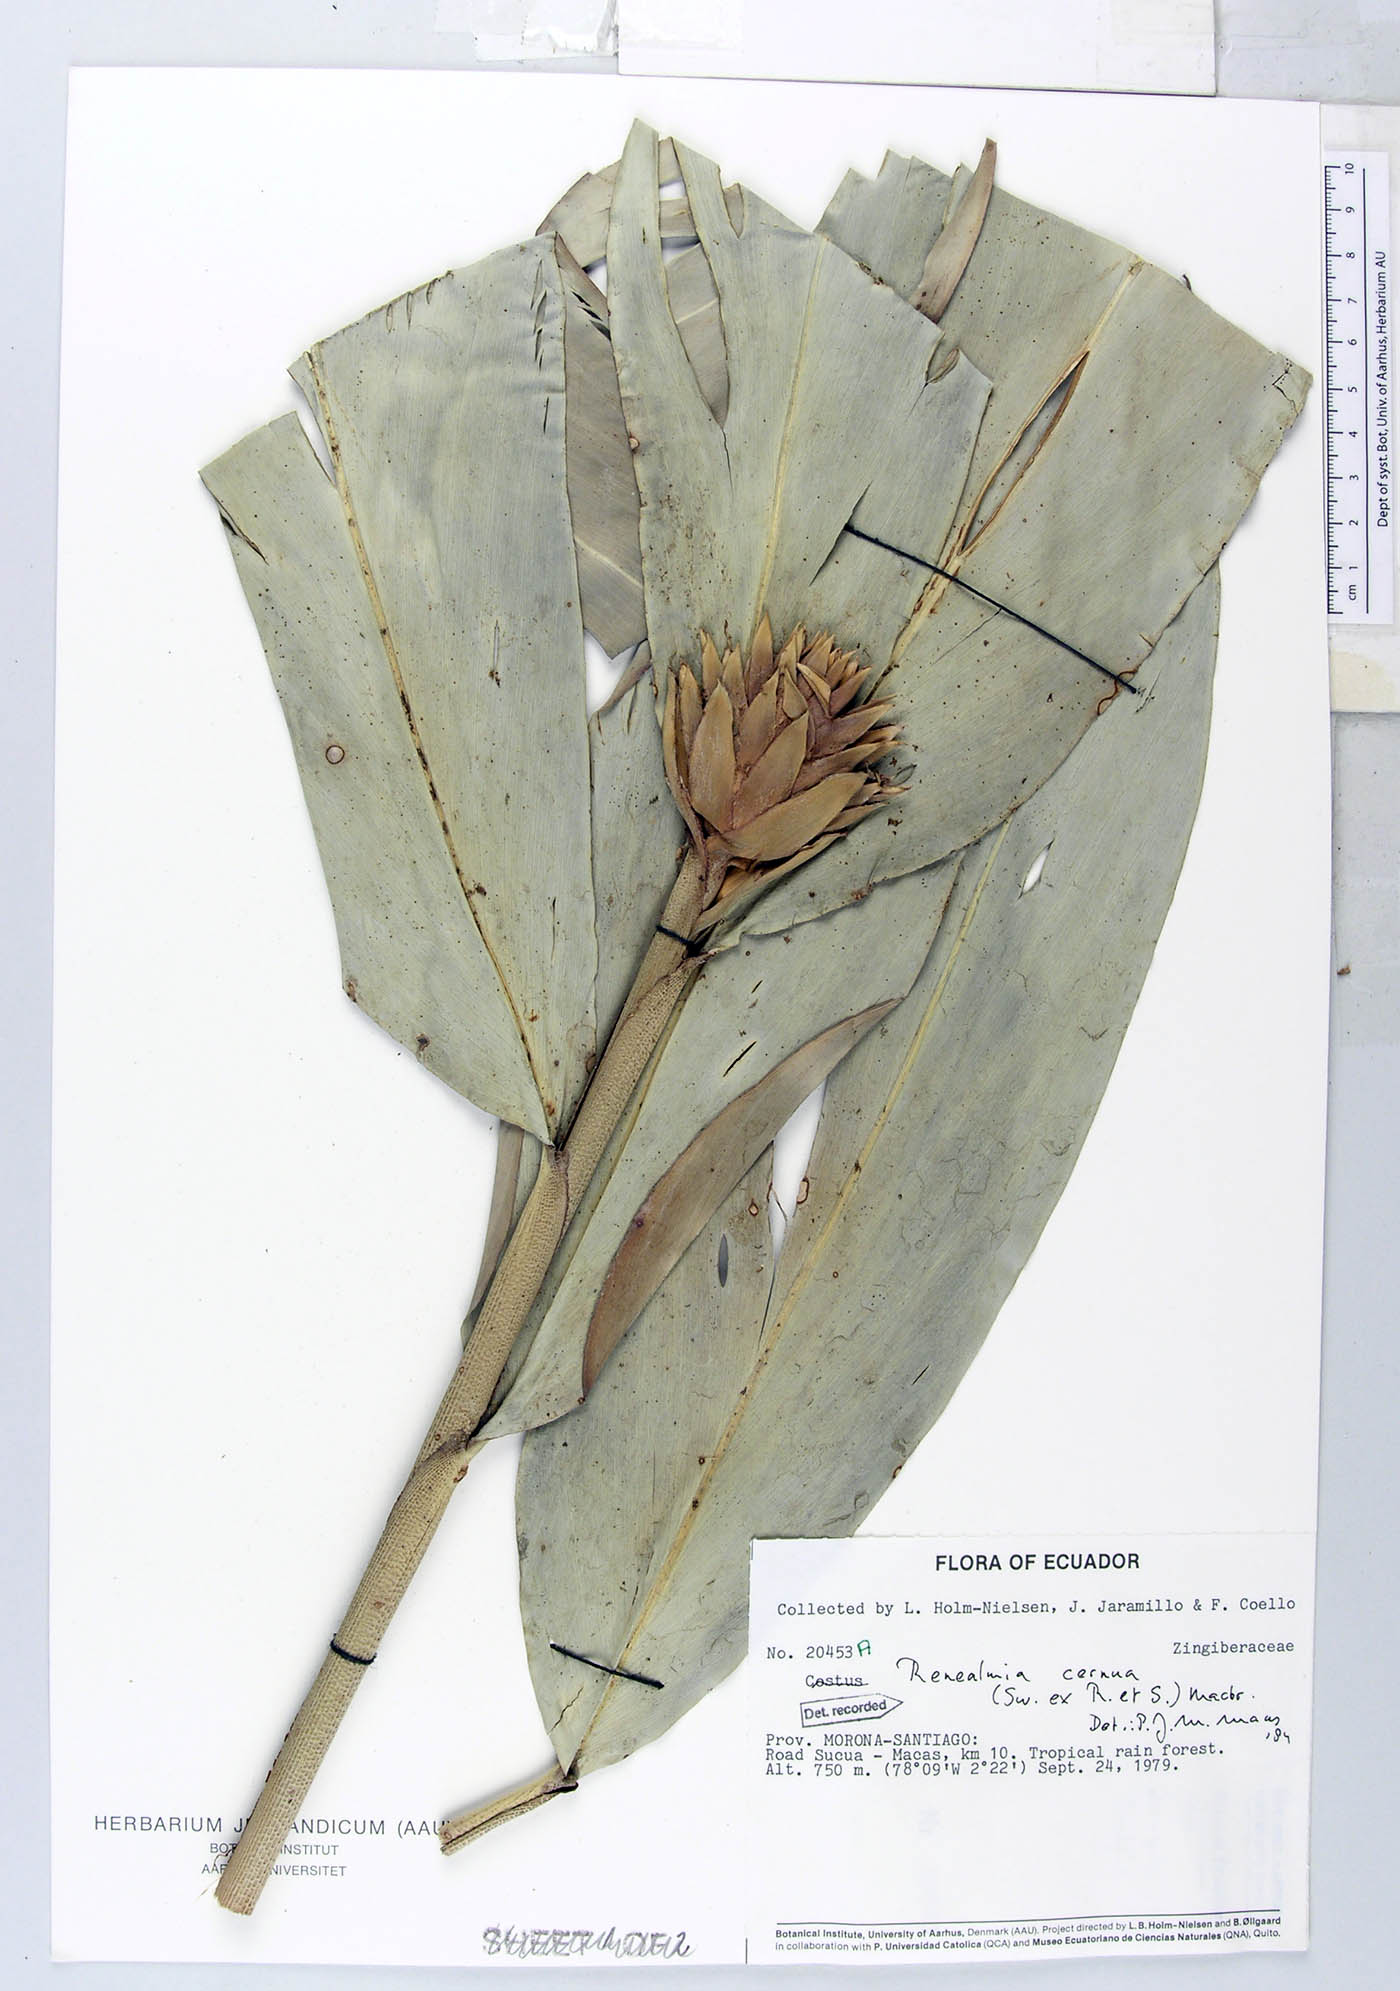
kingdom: Plantae
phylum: Tracheophyta
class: Liliopsida
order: Zingiberales
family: Zingiberaceae
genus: Renealmia
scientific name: Renealmia cernua
